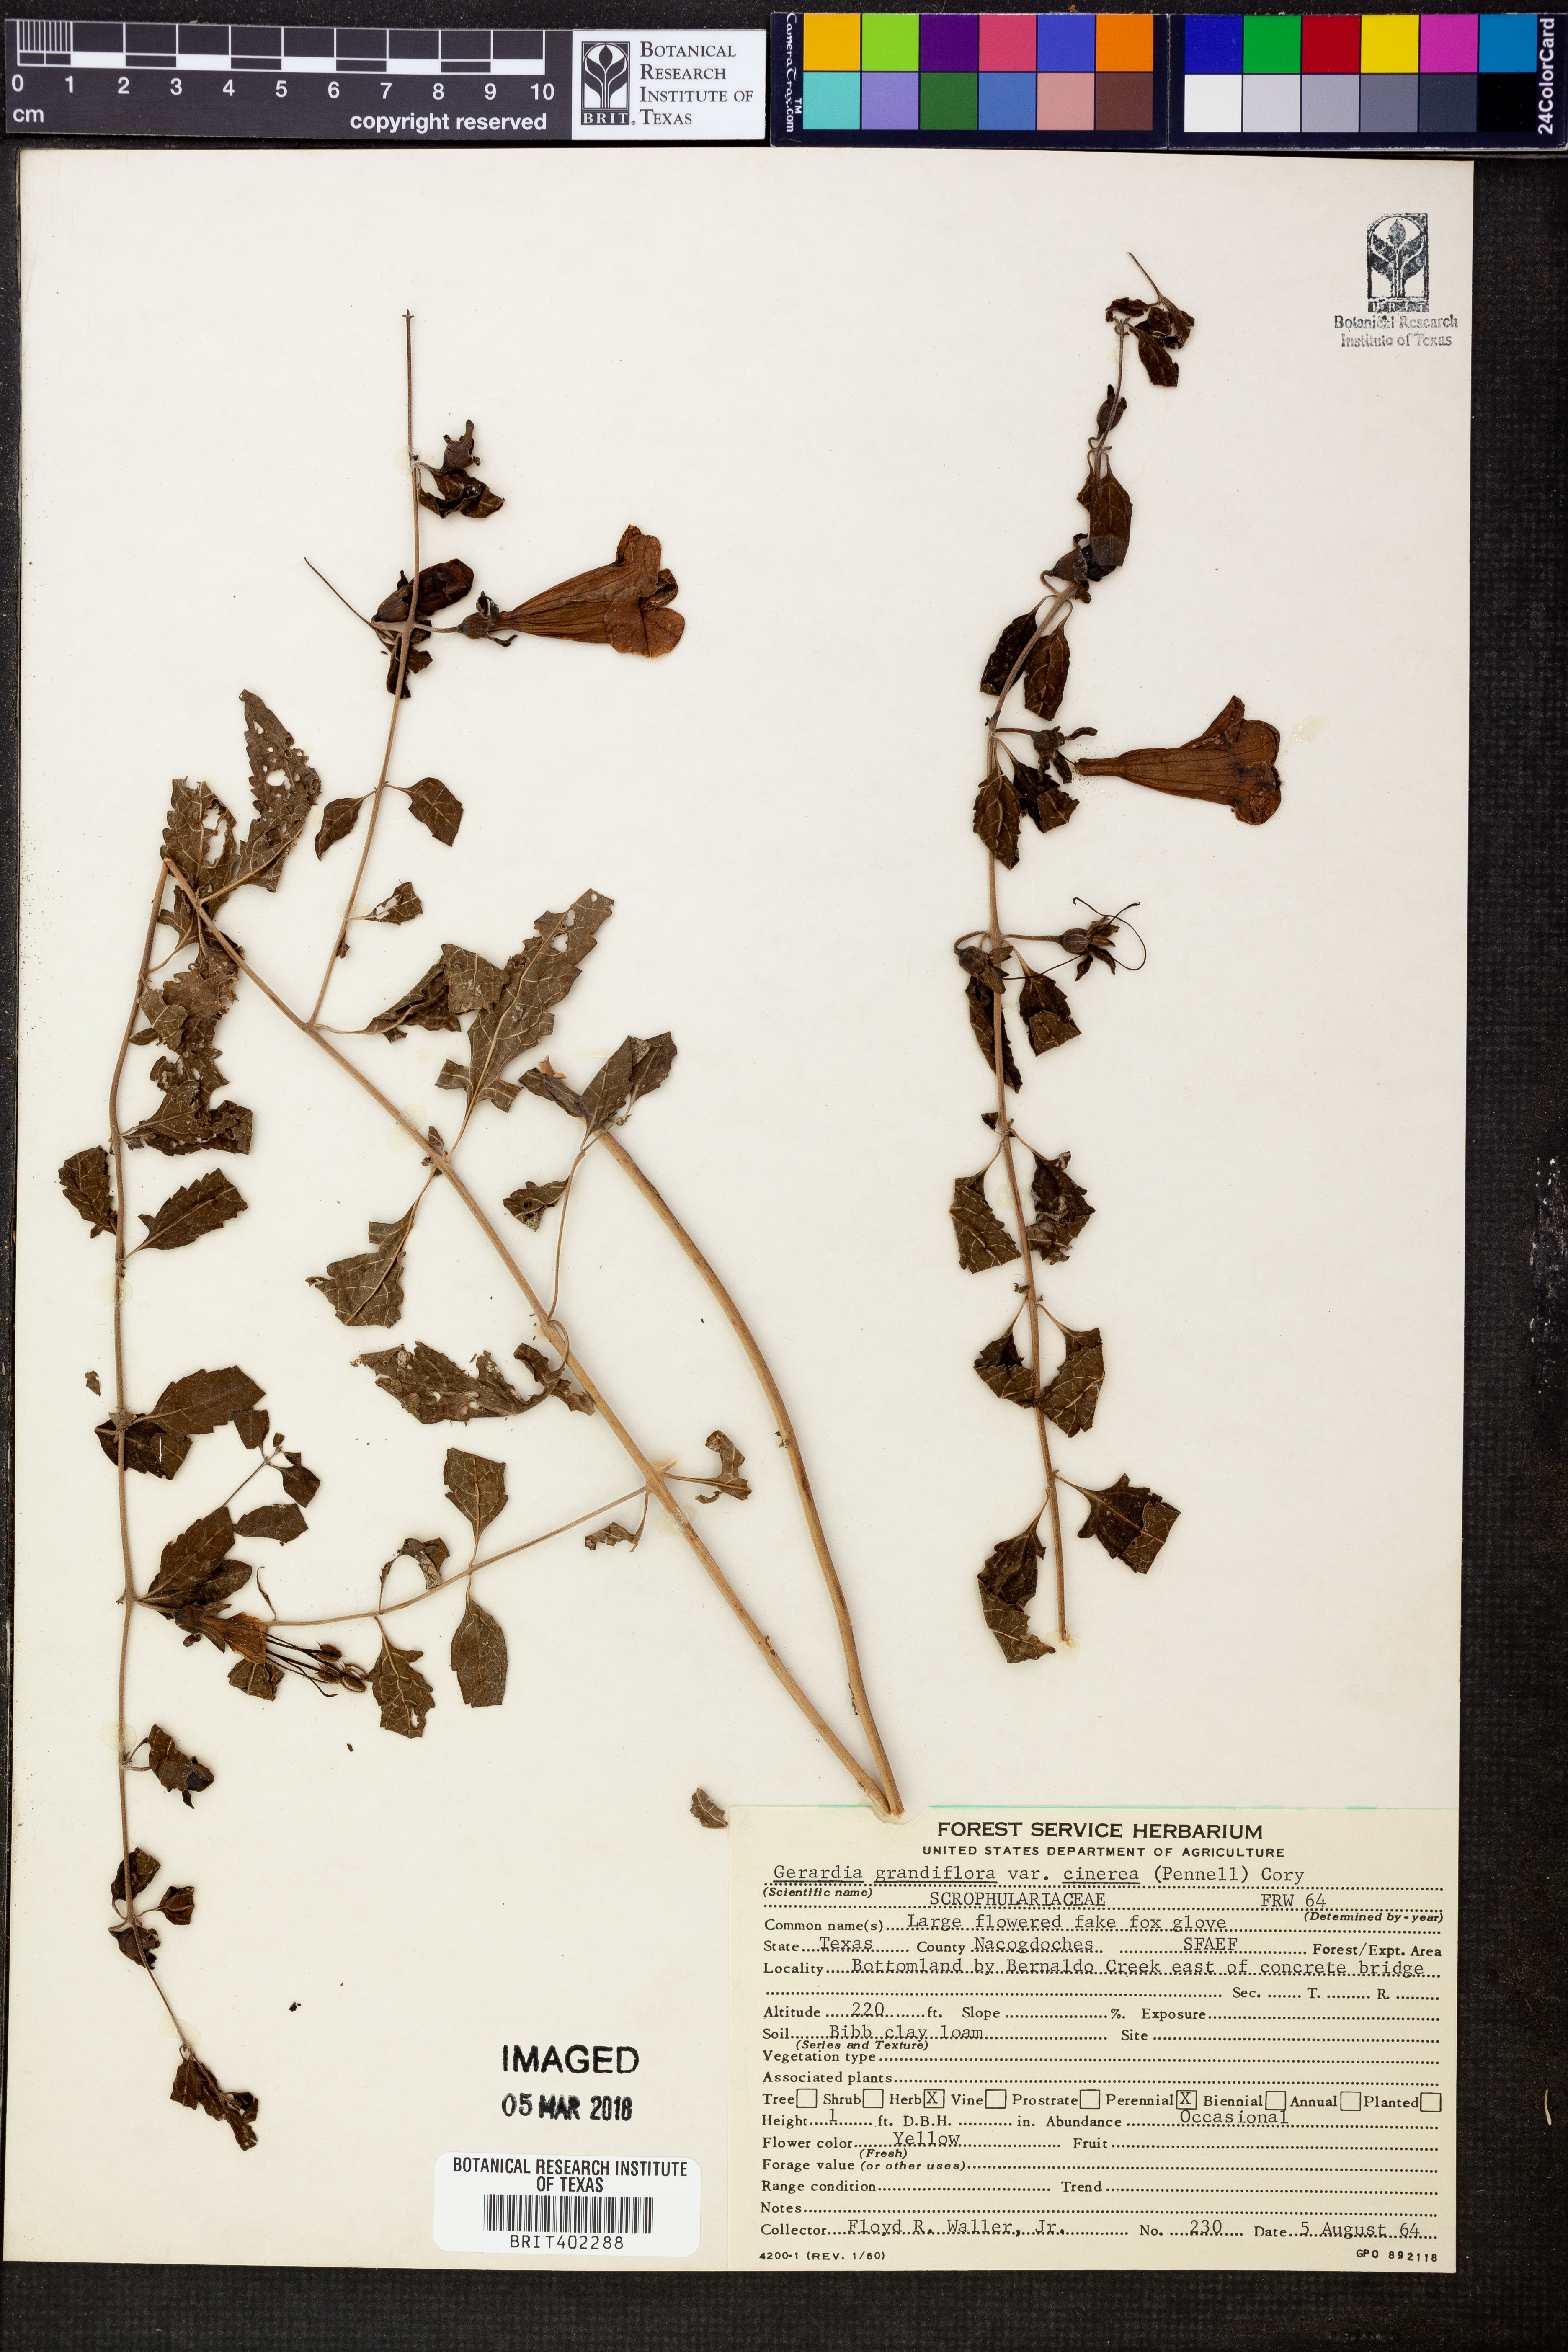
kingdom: Plantae
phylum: Tracheophyta
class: Magnoliopsida
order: Lamiales
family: Orobanchaceae
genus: Aureolaria
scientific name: Aureolaria grandiflora
